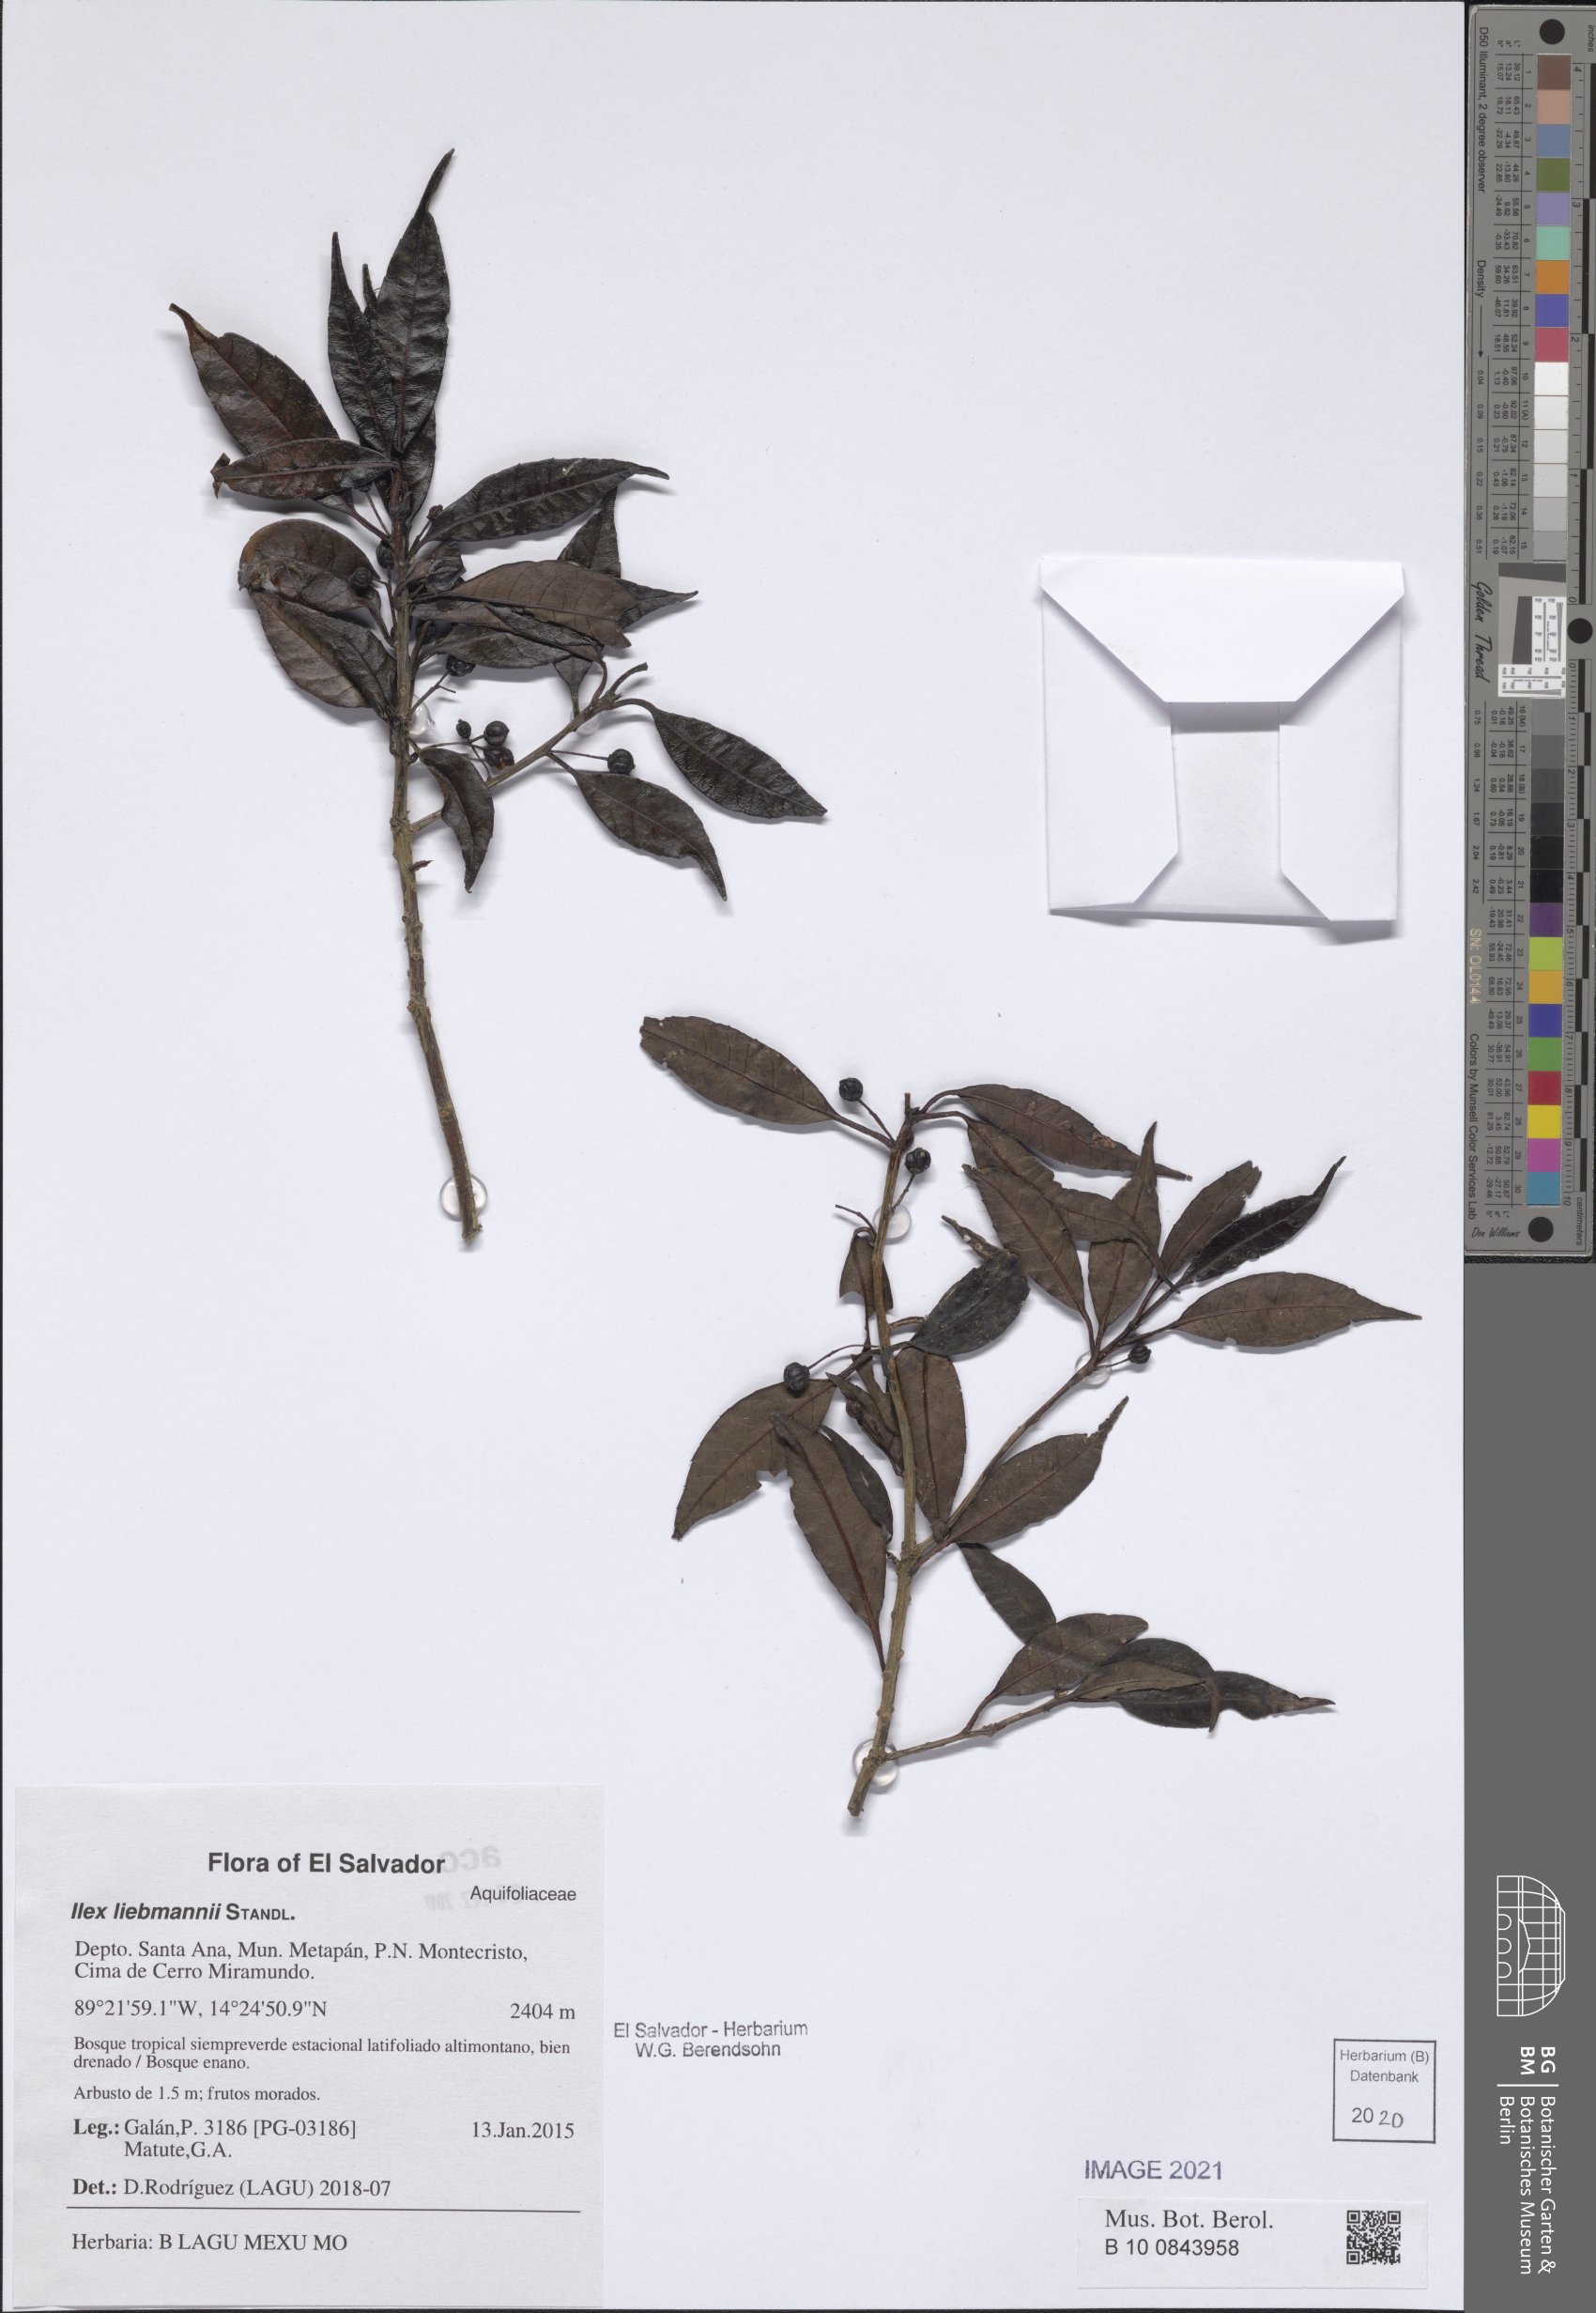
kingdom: Plantae
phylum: Tracheophyta
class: Magnoliopsida
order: Aquifoliales
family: Aquifoliaceae
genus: Ilex
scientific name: Ilex liebmannii
